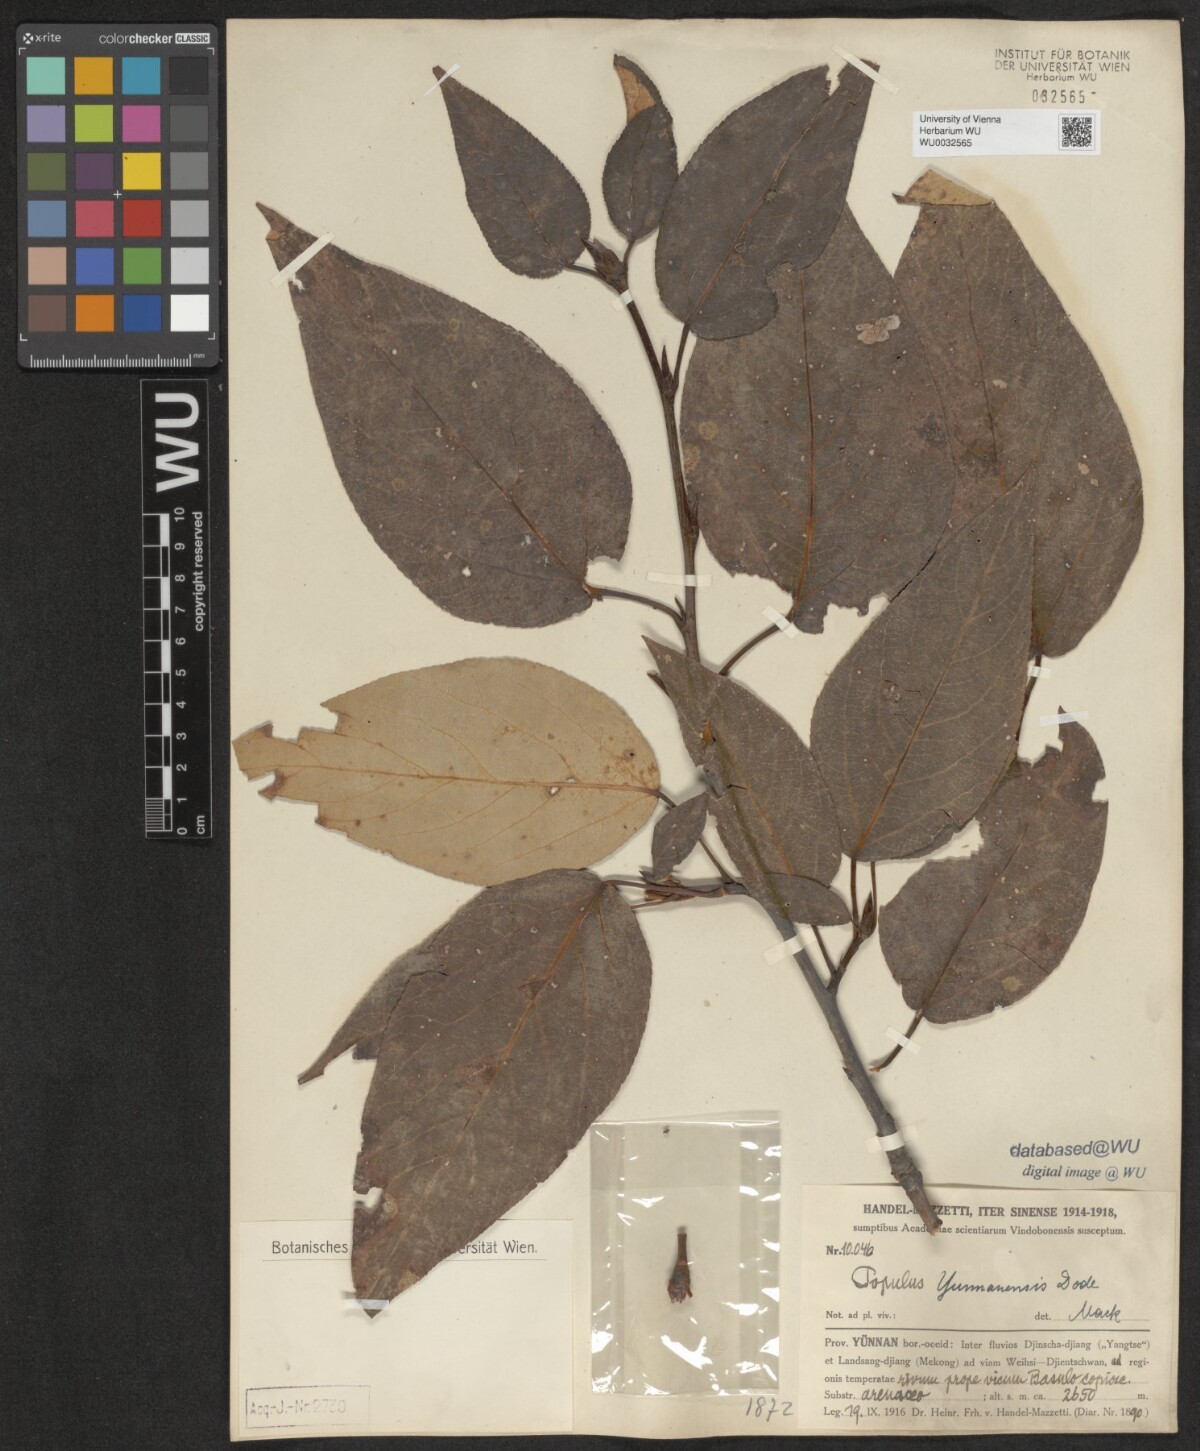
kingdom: Plantae
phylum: Tracheophyta
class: Magnoliopsida
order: Malpighiales
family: Salicaceae
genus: Populus
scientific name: Populus yunnanensis
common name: Yunnan poplar
